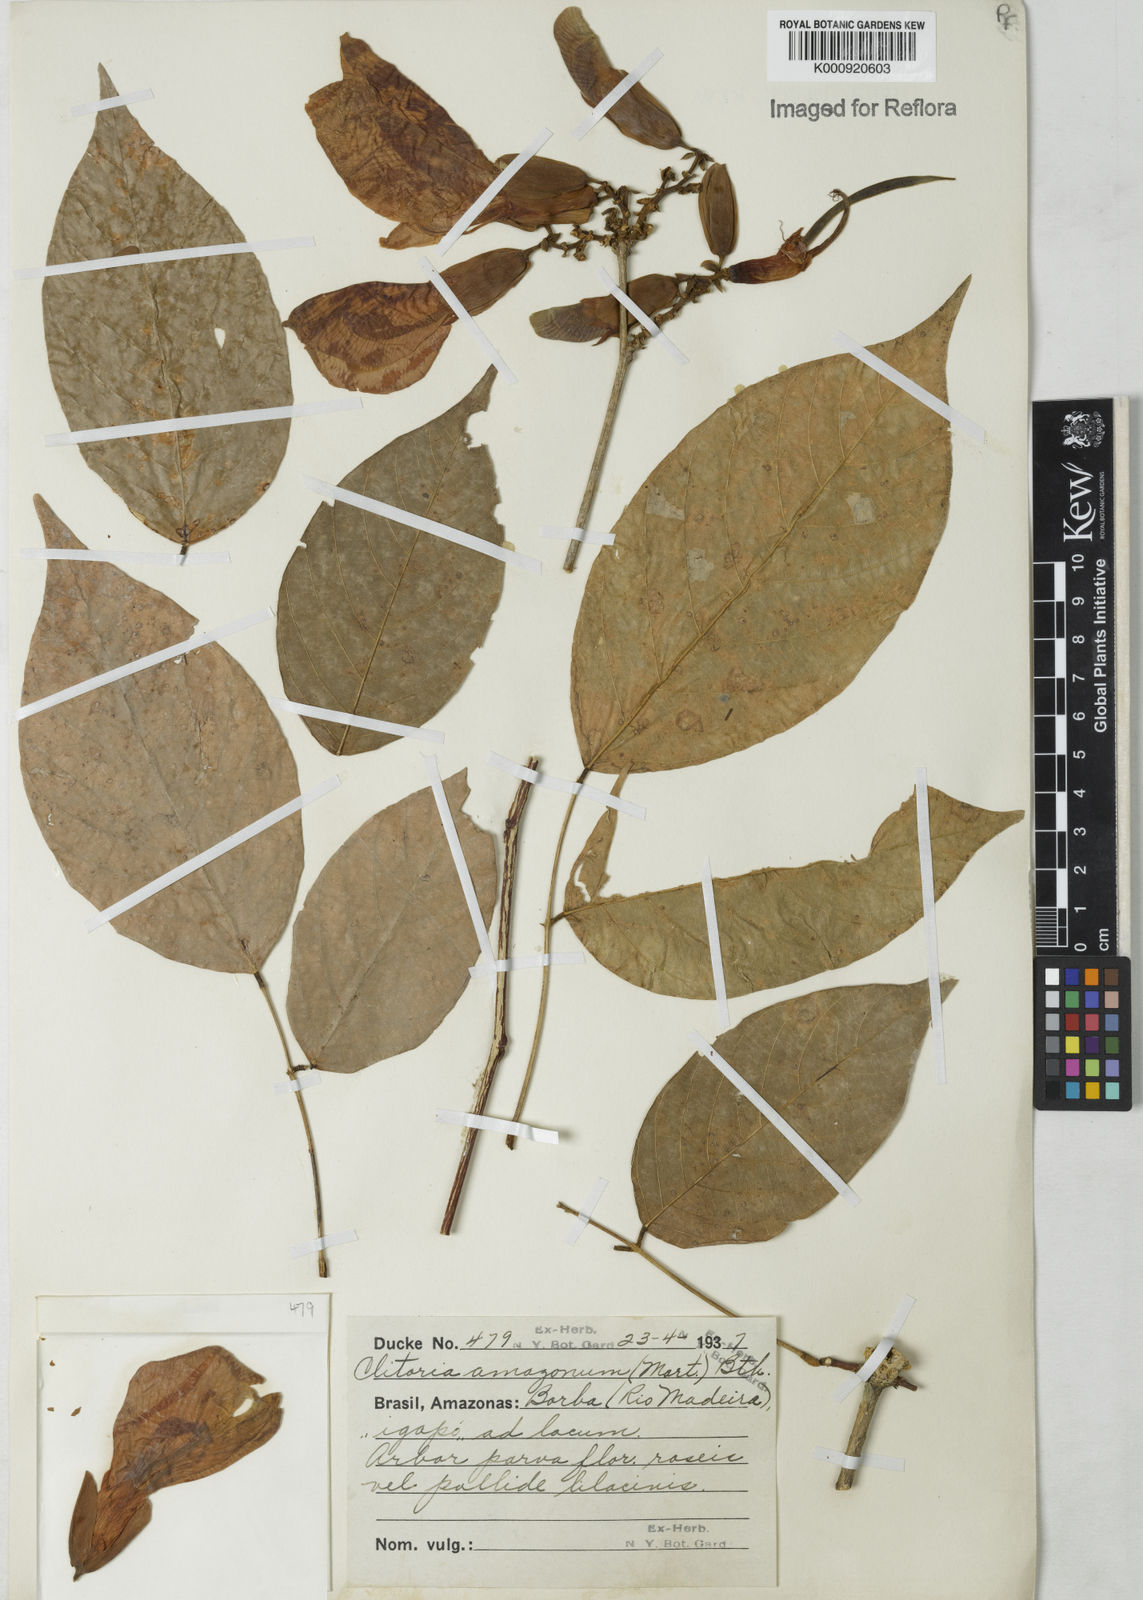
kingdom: Plantae
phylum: Tracheophyta
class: Magnoliopsida
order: Fabales
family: Fabaceae
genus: Clitoria
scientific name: Clitoria amazonum
